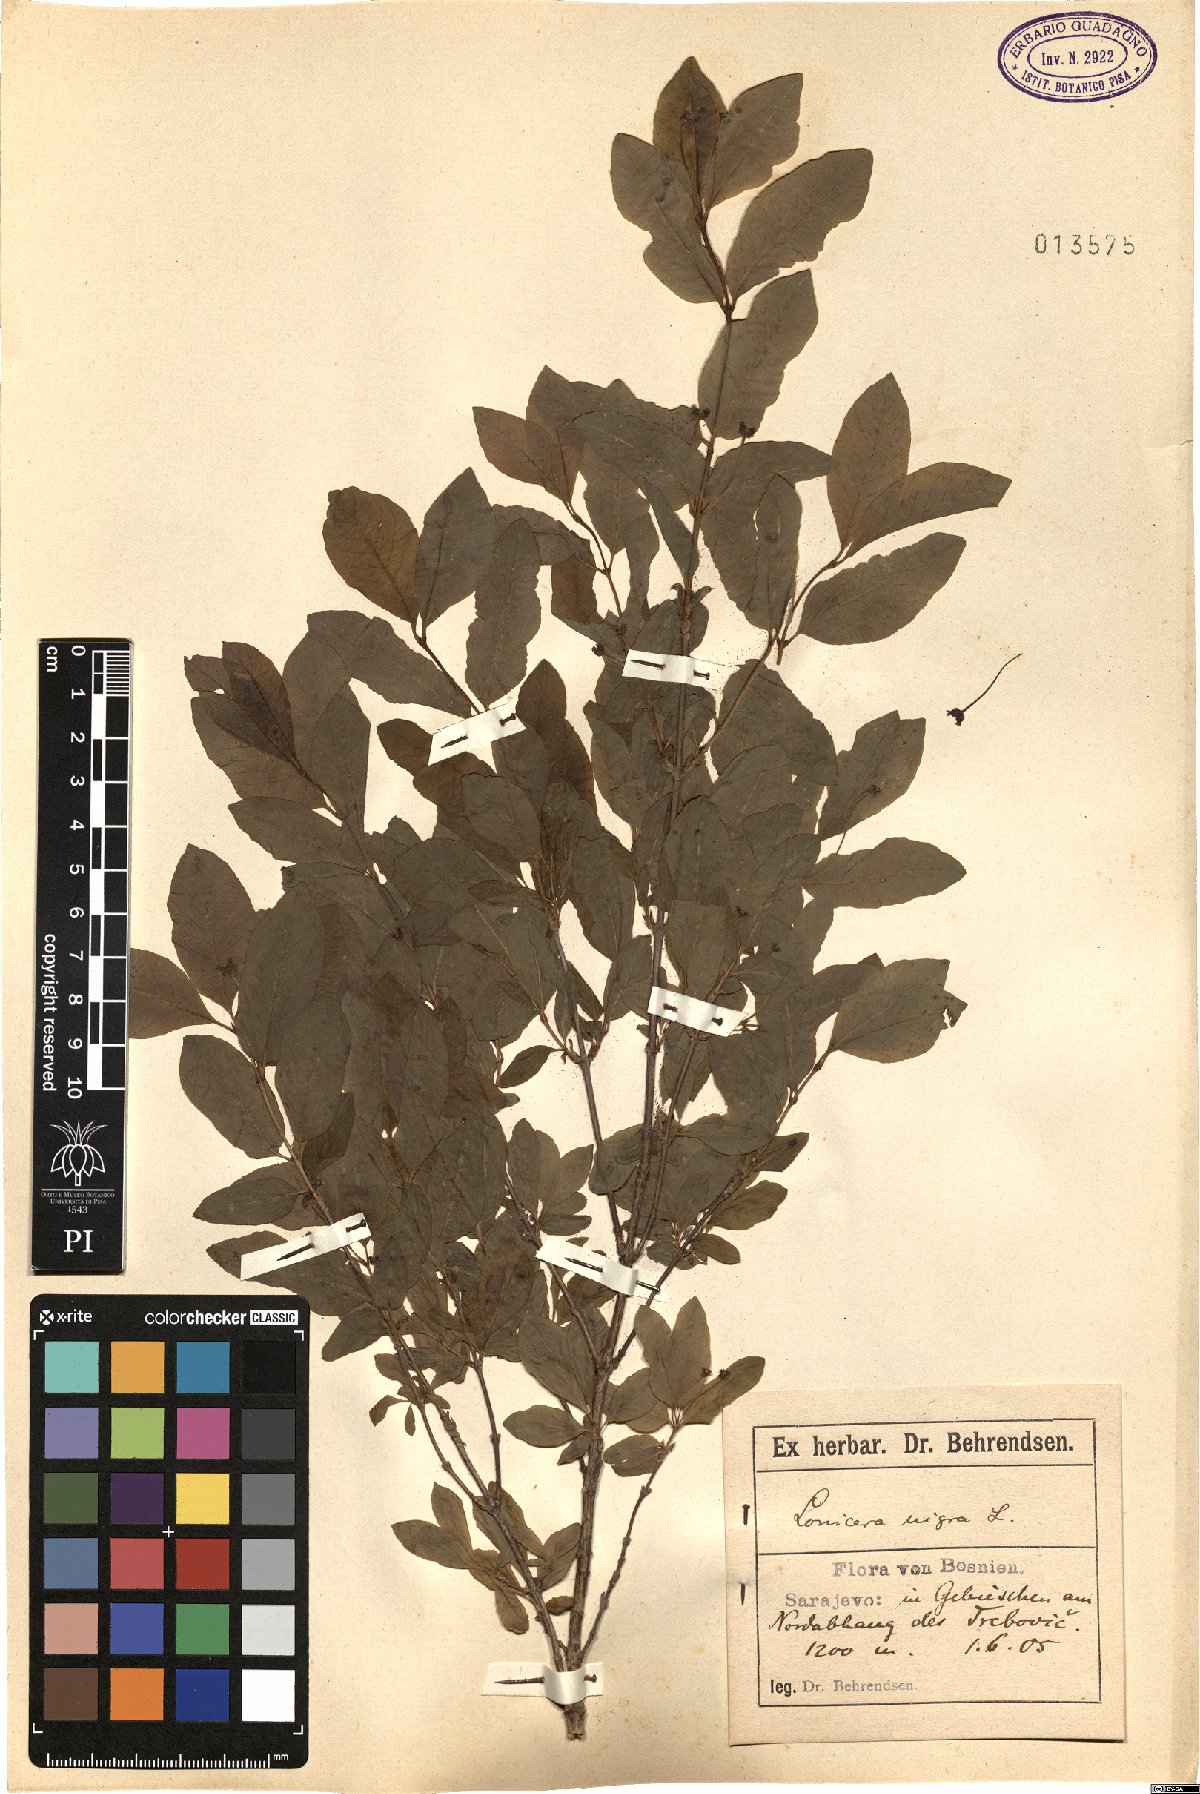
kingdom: Plantae
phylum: Tracheophyta
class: Magnoliopsida
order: Dipsacales
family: Caprifoliaceae
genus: Lonicera
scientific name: Lonicera nigra
